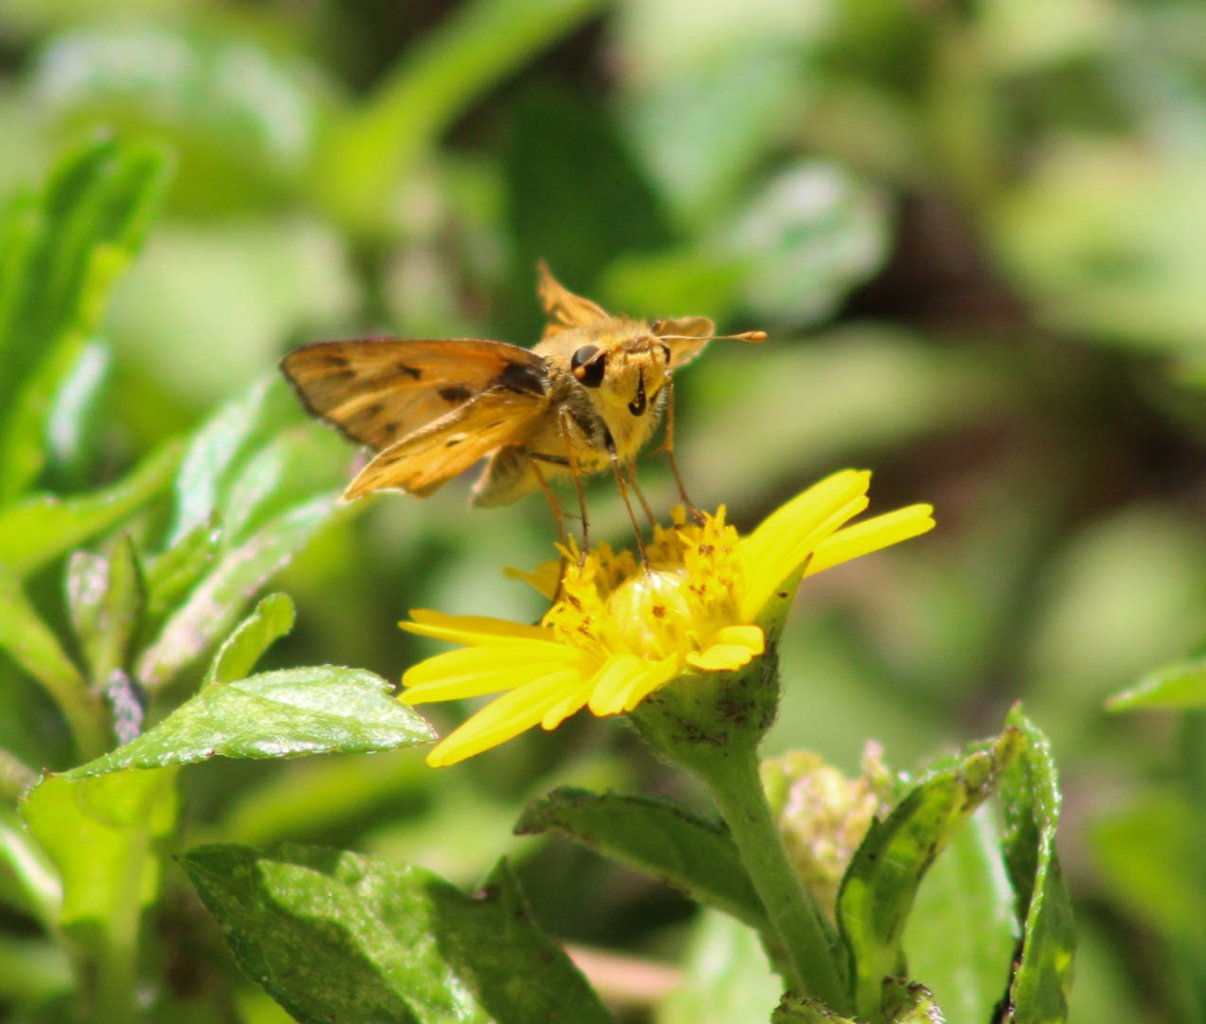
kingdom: Animalia
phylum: Arthropoda
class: Insecta
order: Lepidoptera
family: Hesperiidae
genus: Hylephila
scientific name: Hylephila phyleus
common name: Fiery Skipper
